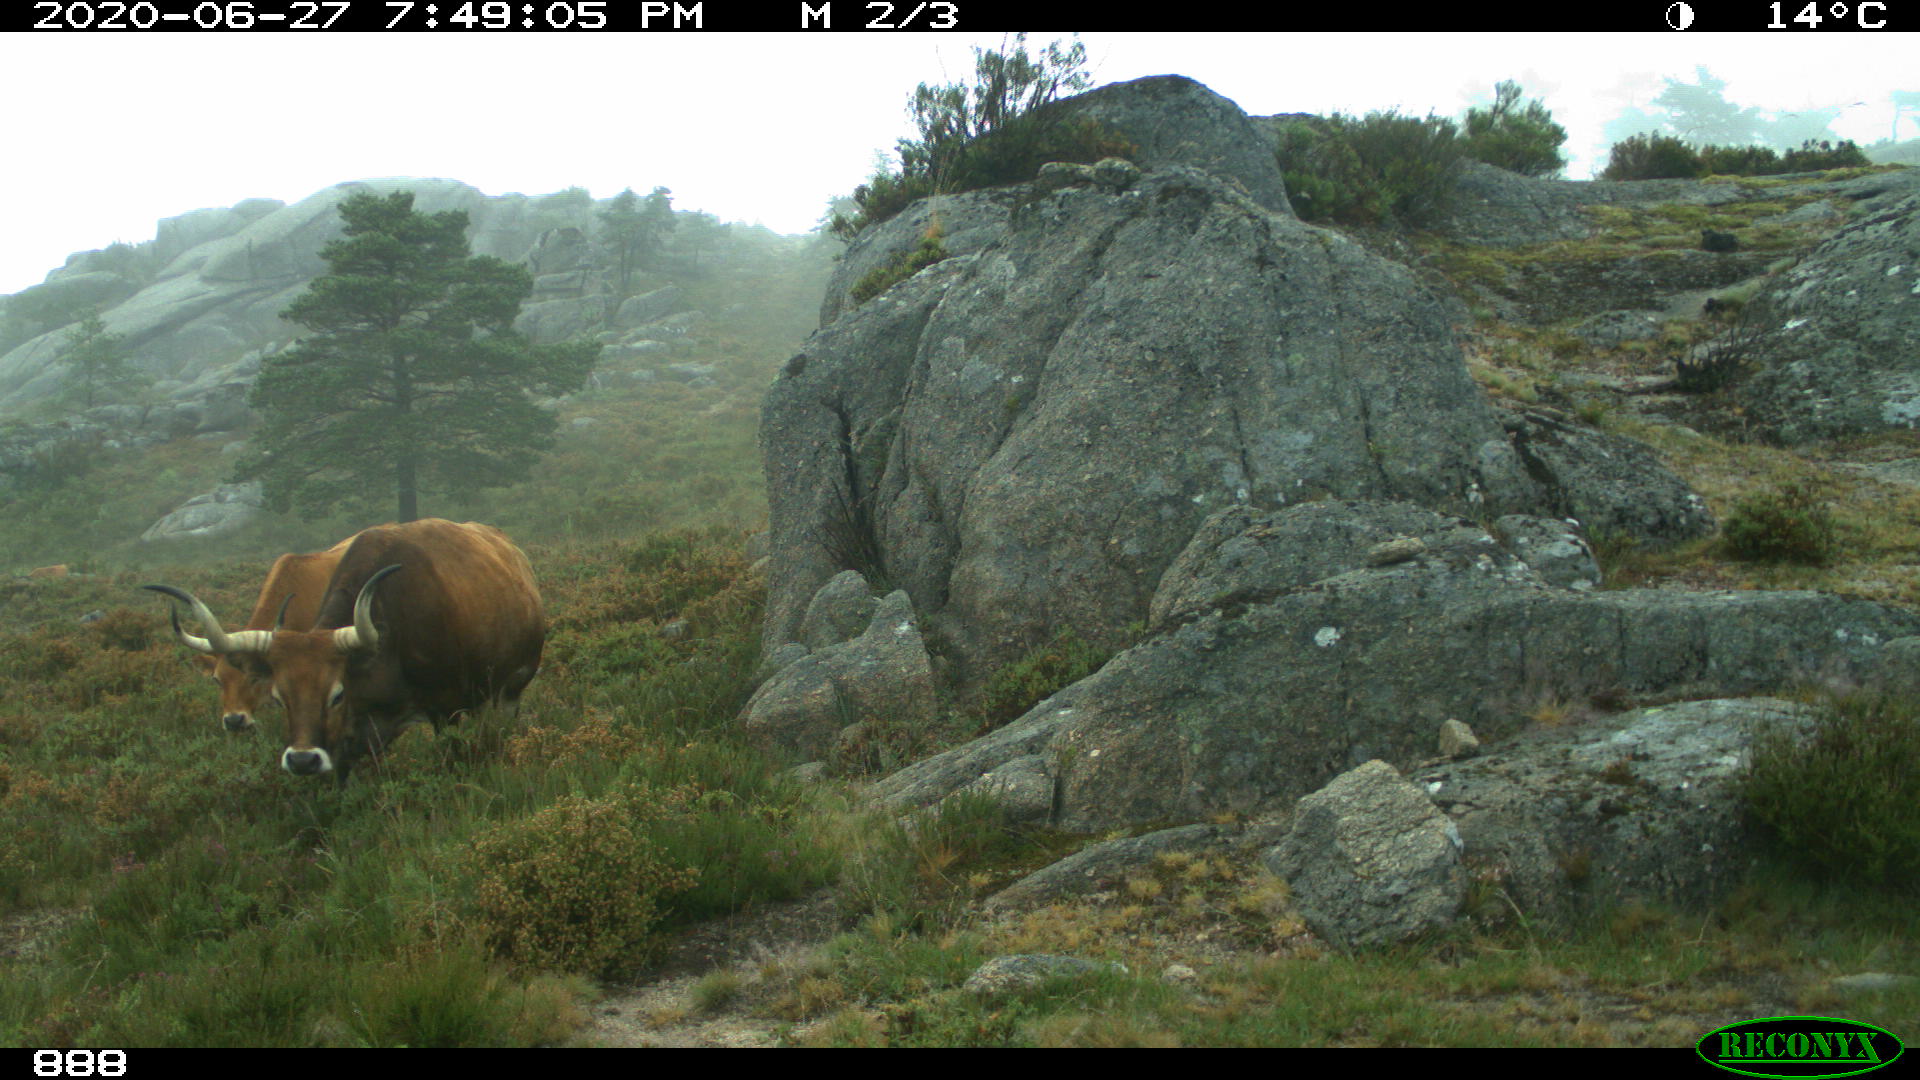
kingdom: Animalia
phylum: Chordata
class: Mammalia
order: Artiodactyla
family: Bovidae
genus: Bos
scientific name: Bos taurus
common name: Domesticated cattle
